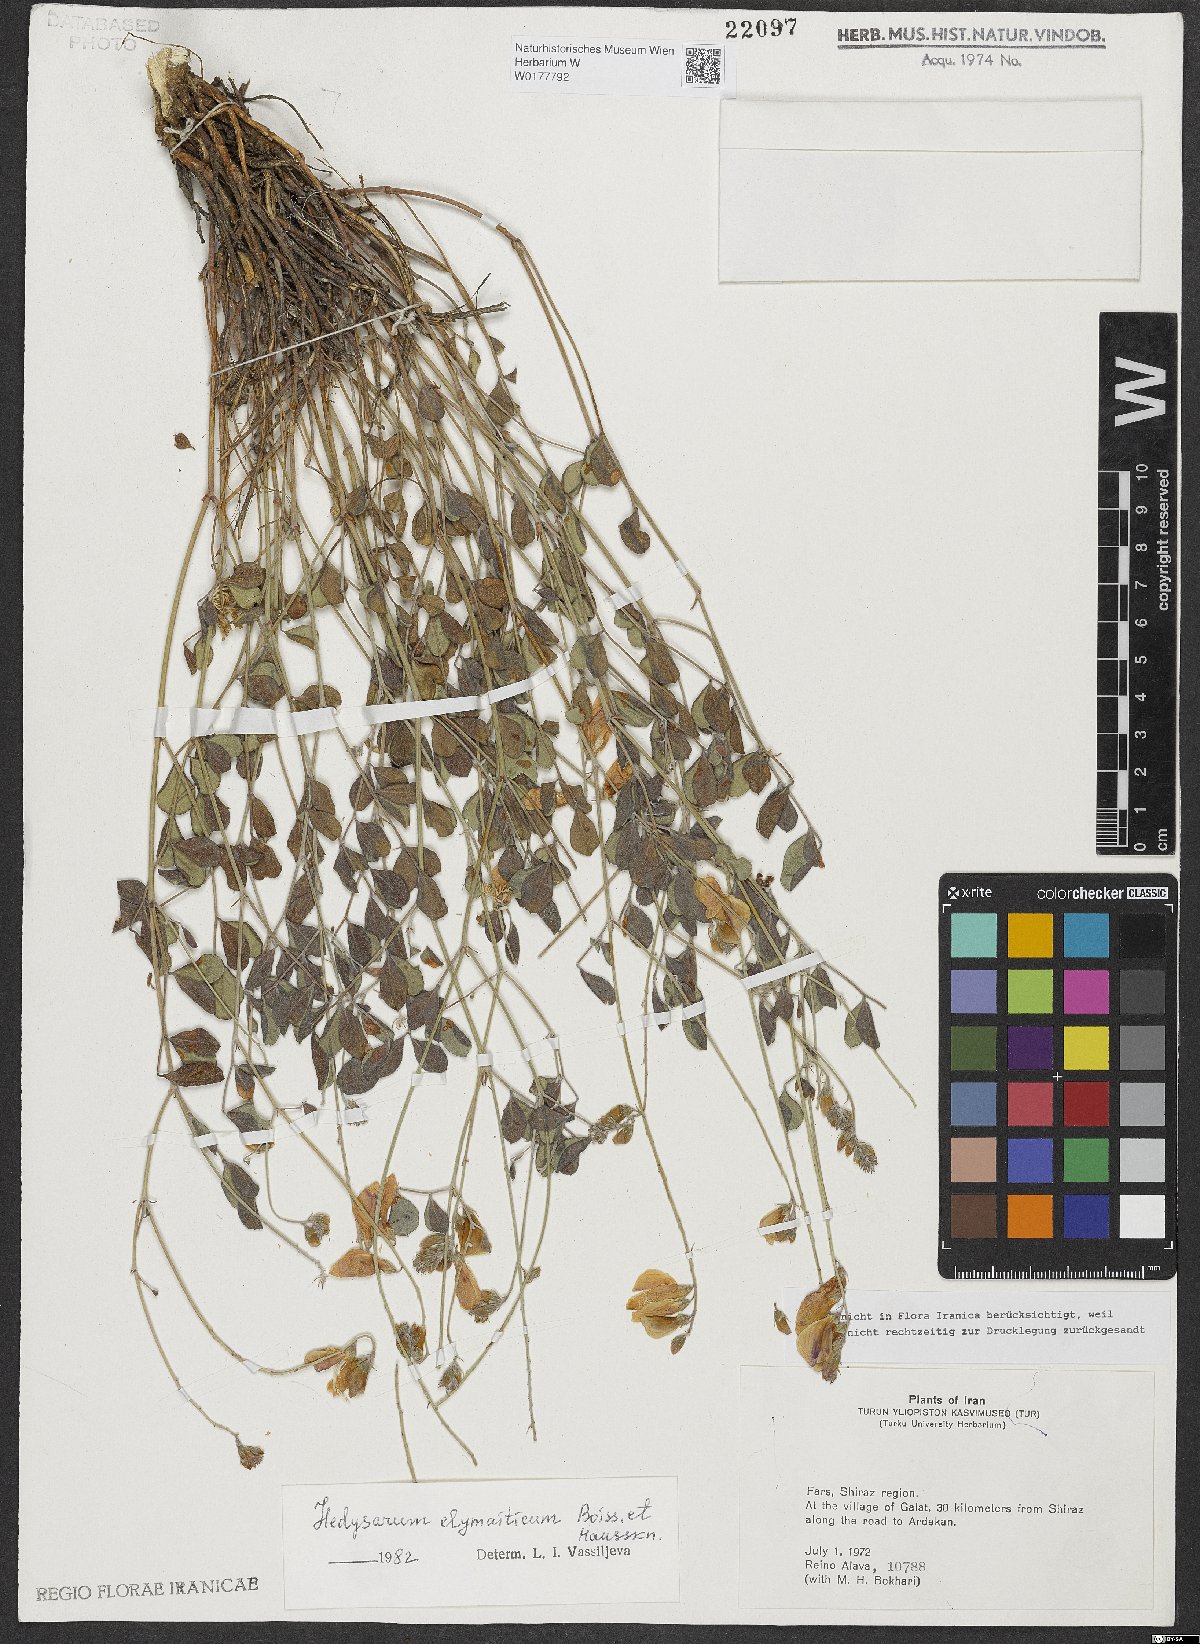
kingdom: Plantae
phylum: Tracheophyta
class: Magnoliopsida
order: Fabales
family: Fabaceae
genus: Hedysarum
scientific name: Hedysarum elymaiticum
